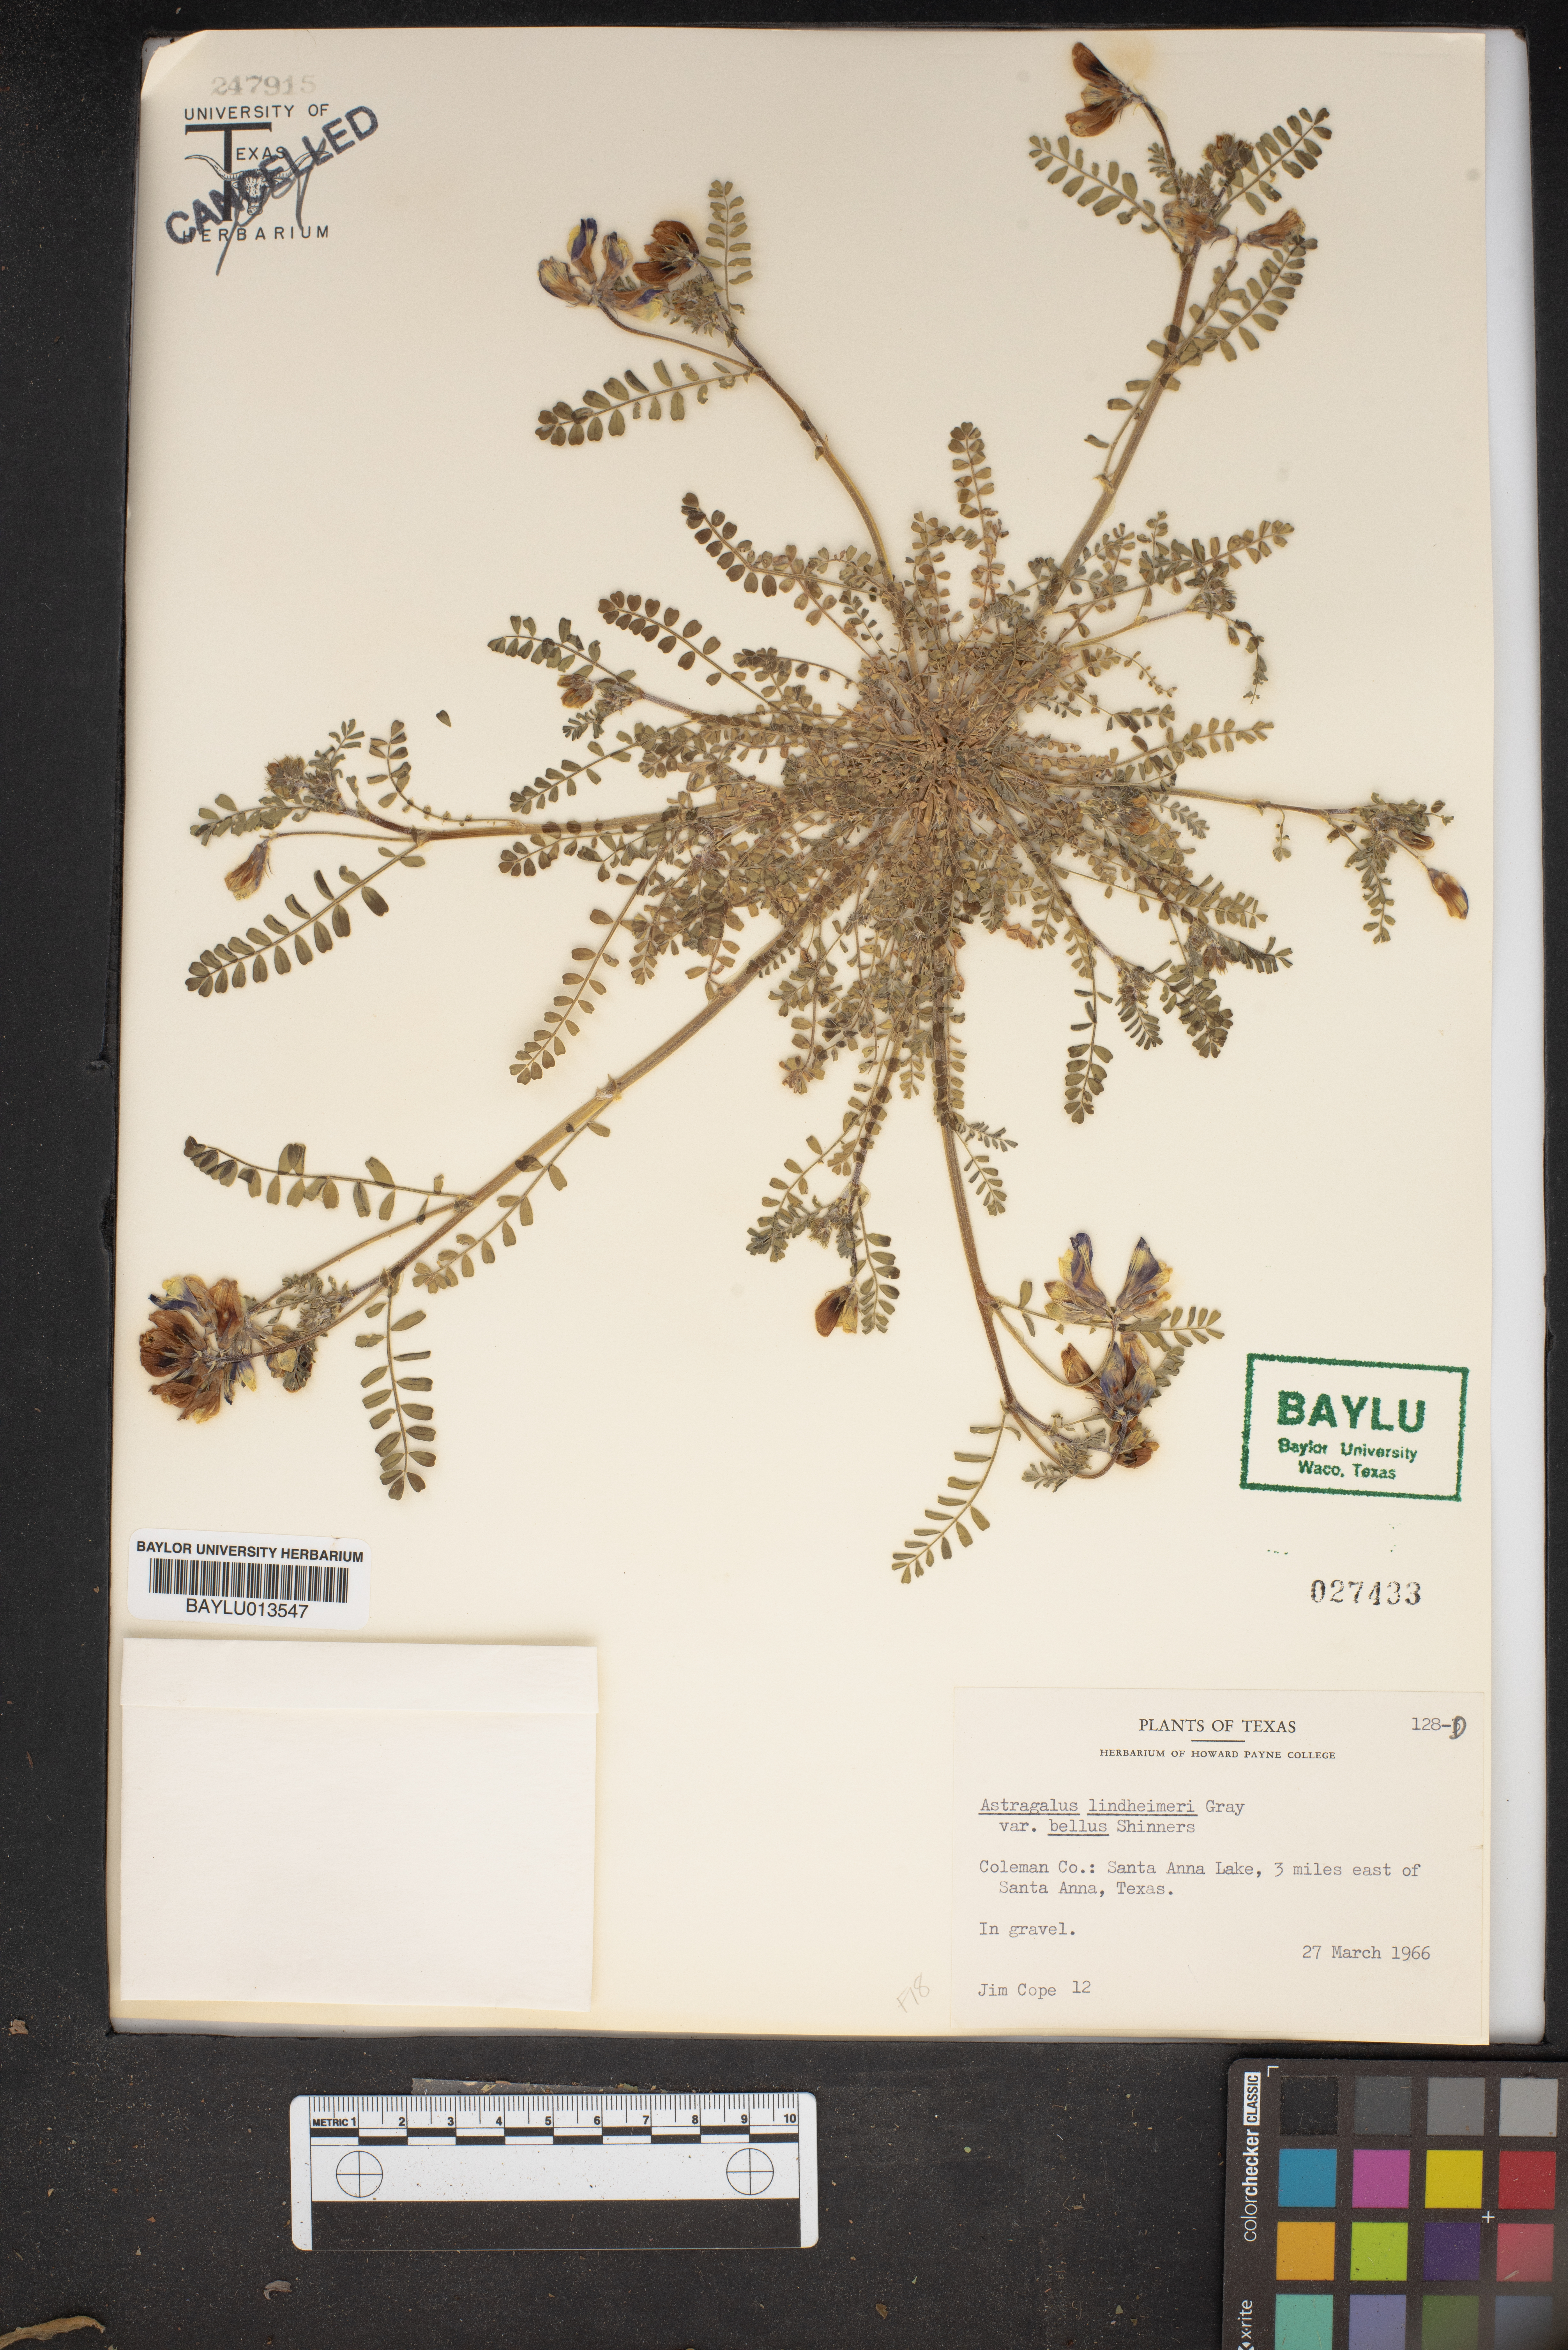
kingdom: Plantae
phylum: Tracheophyta
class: Magnoliopsida
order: Fabales
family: Fabaceae
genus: Astragalus
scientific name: Astragalus lindheimeri
